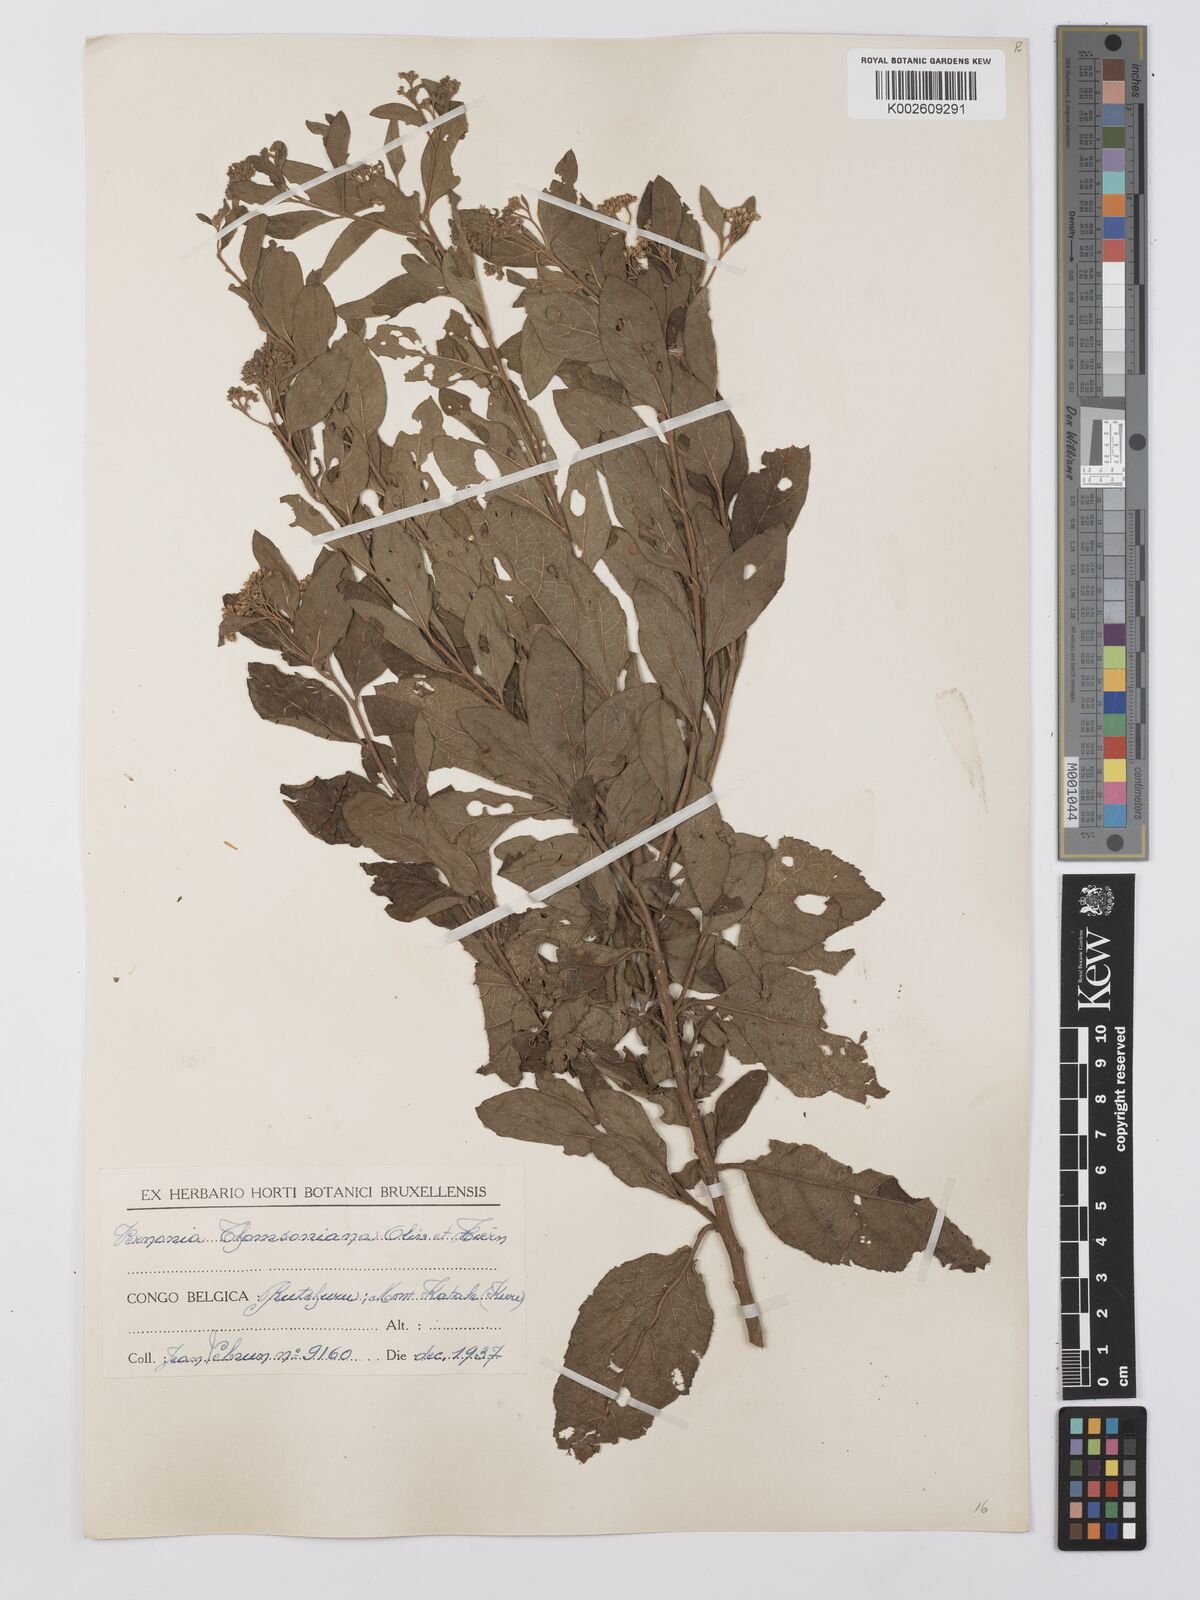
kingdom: Plantae
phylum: Tracheophyta
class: Magnoliopsida
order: Asterales
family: Asteraceae
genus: Gymnanthemum
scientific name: Gymnanthemum thomsonianum
